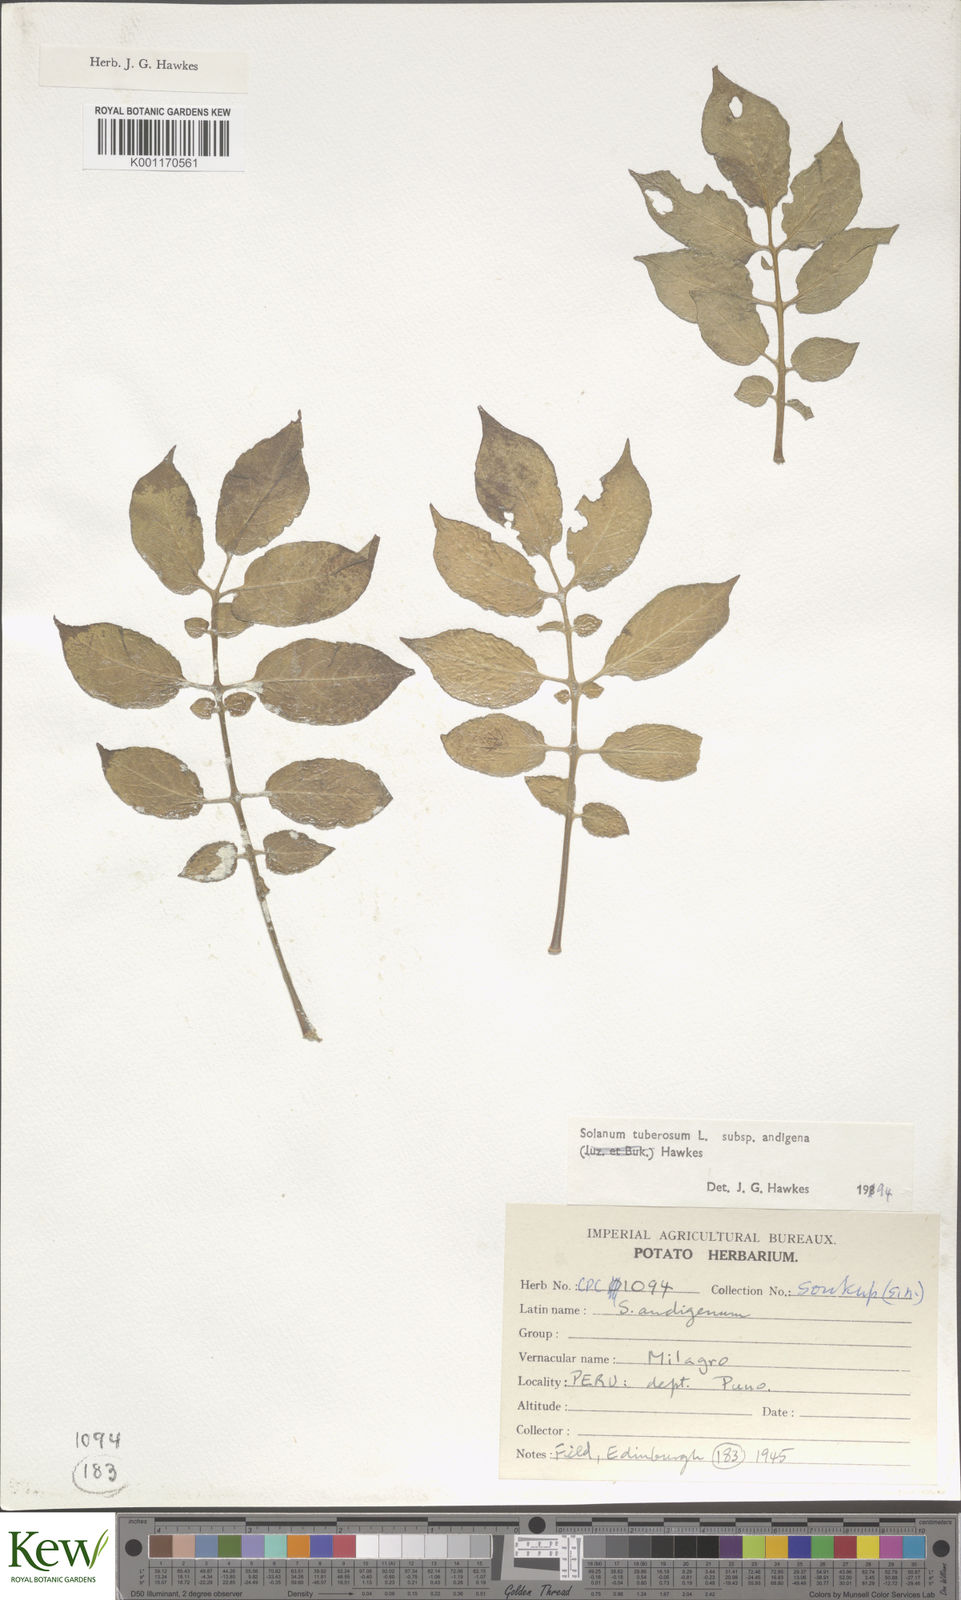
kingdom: Plantae
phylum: Tracheophyta
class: Magnoliopsida
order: Solanales
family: Solanaceae
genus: Solanum
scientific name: Solanum tuberosum
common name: Potato
